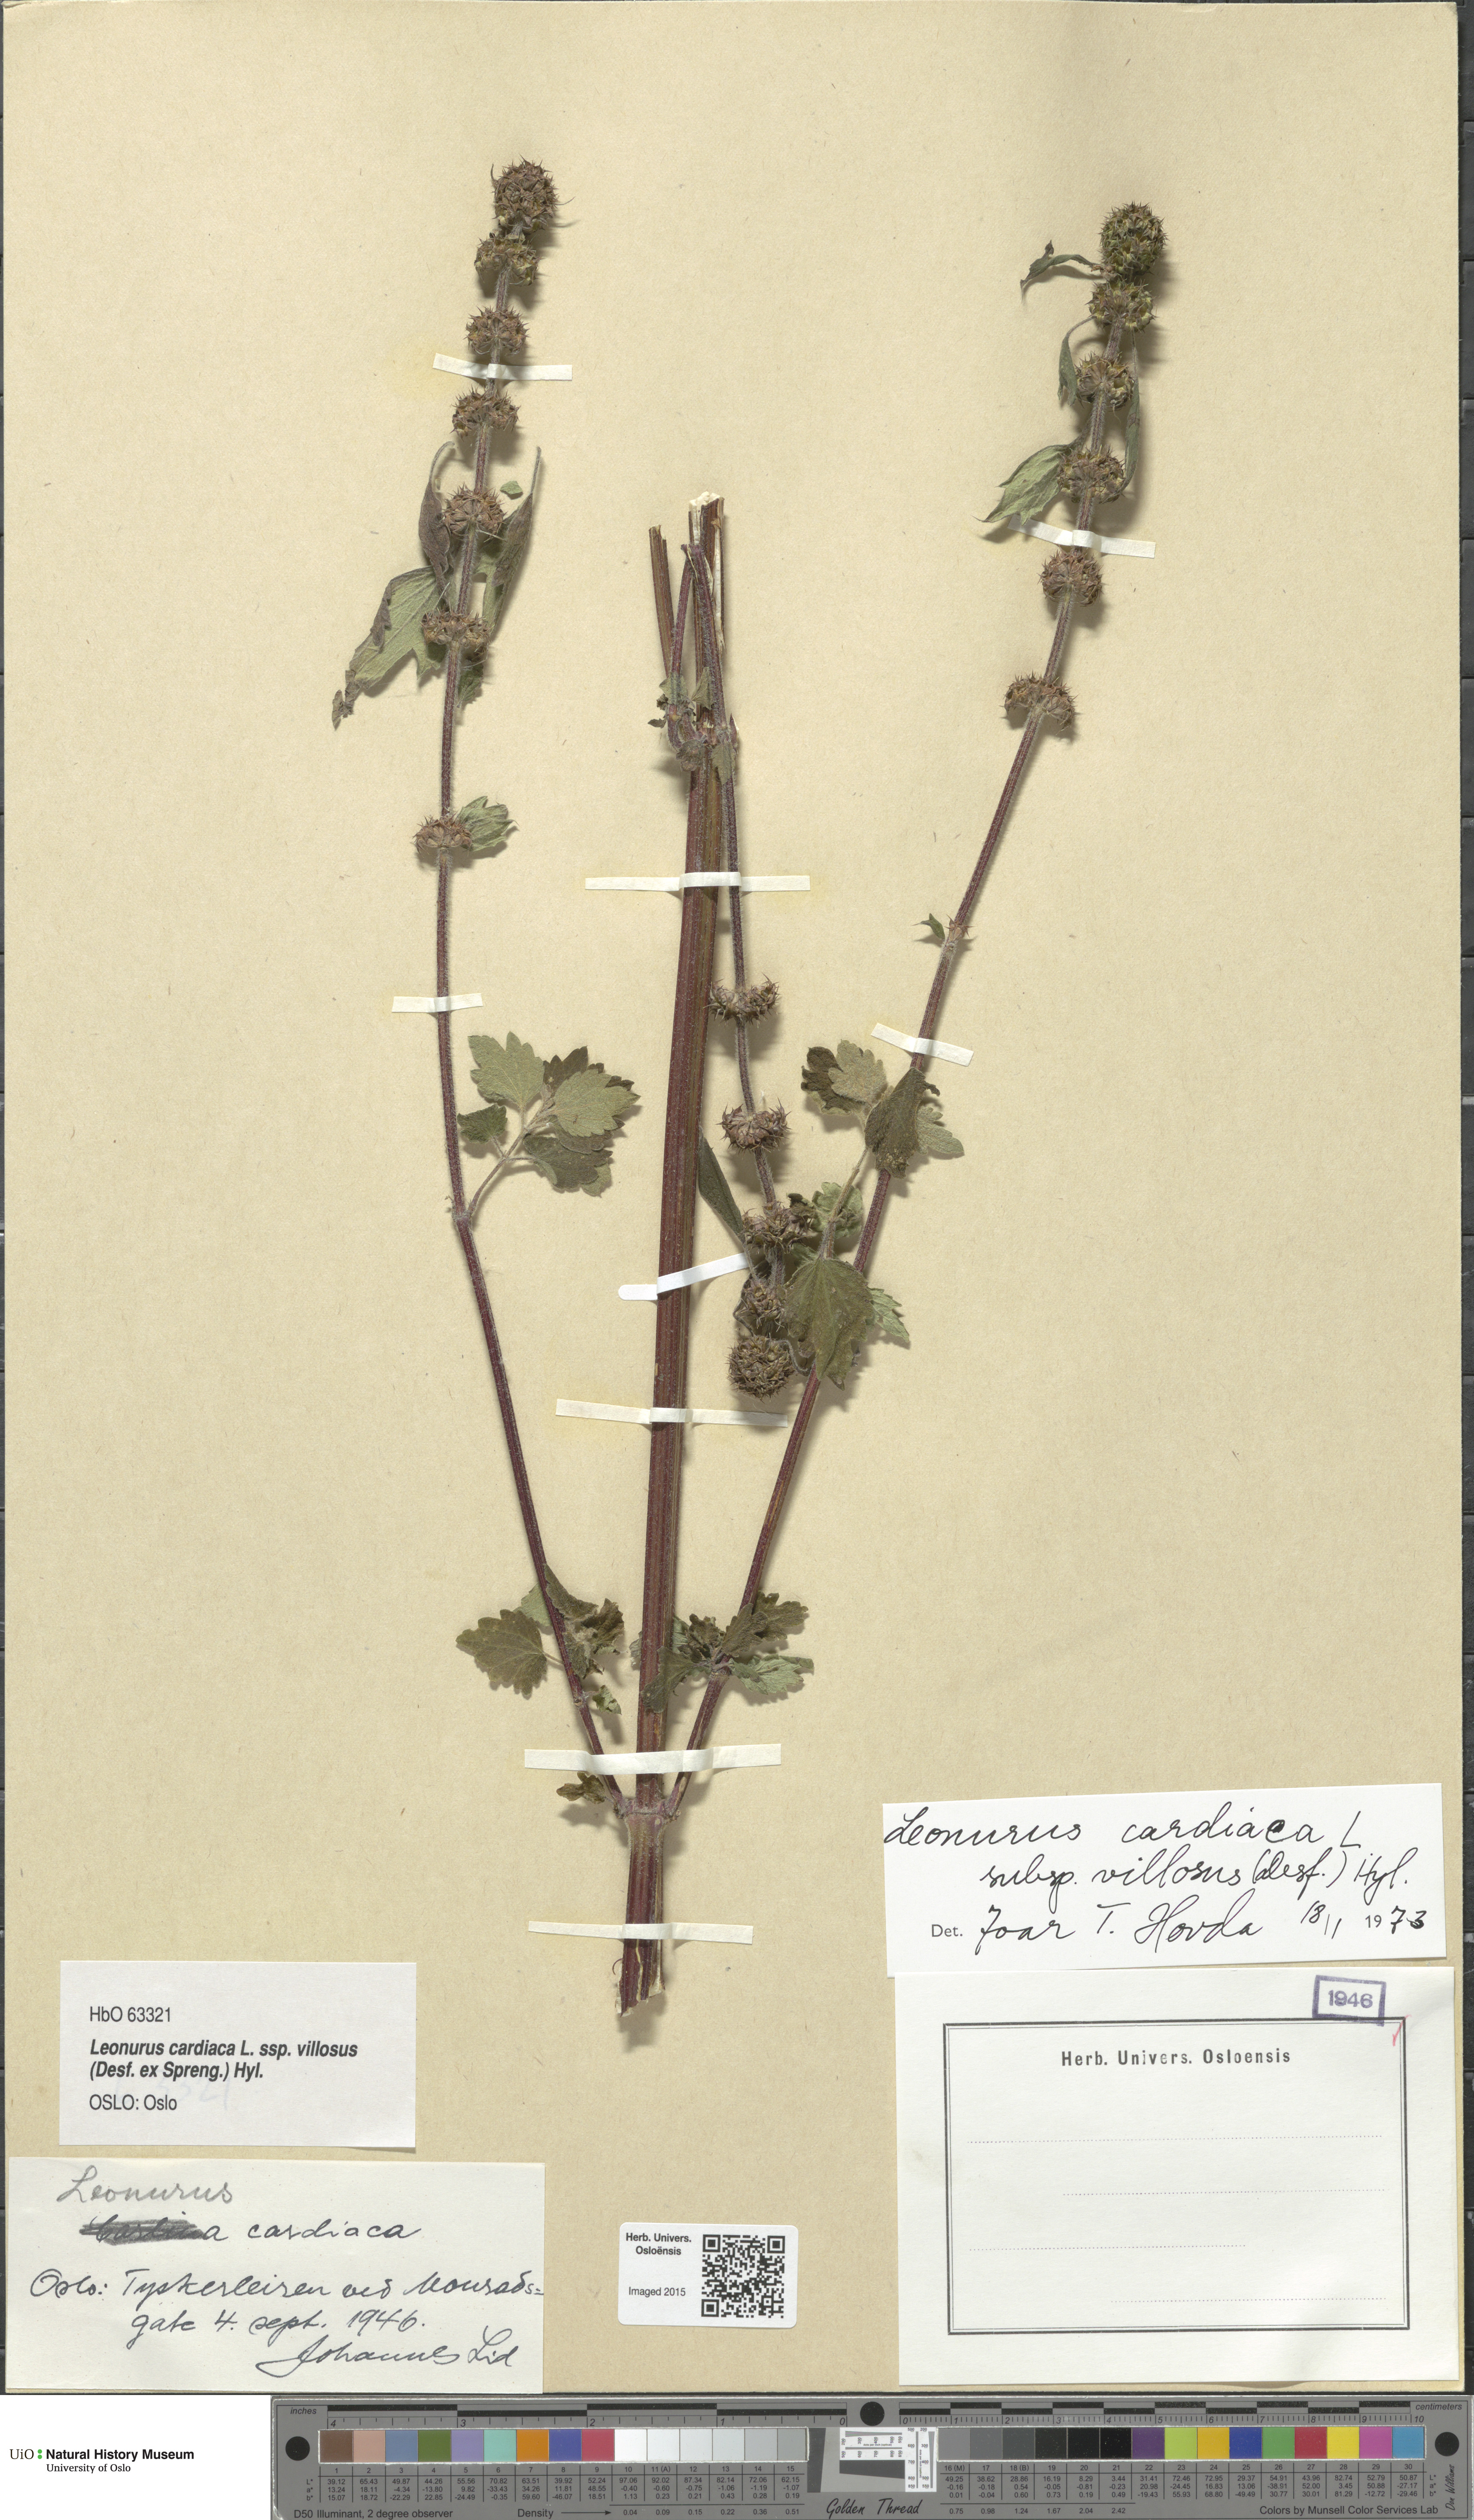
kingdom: Plantae
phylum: Tracheophyta
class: Magnoliopsida
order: Lamiales
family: Lamiaceae
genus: Leonurus
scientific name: Leonurus quinquelobatus
